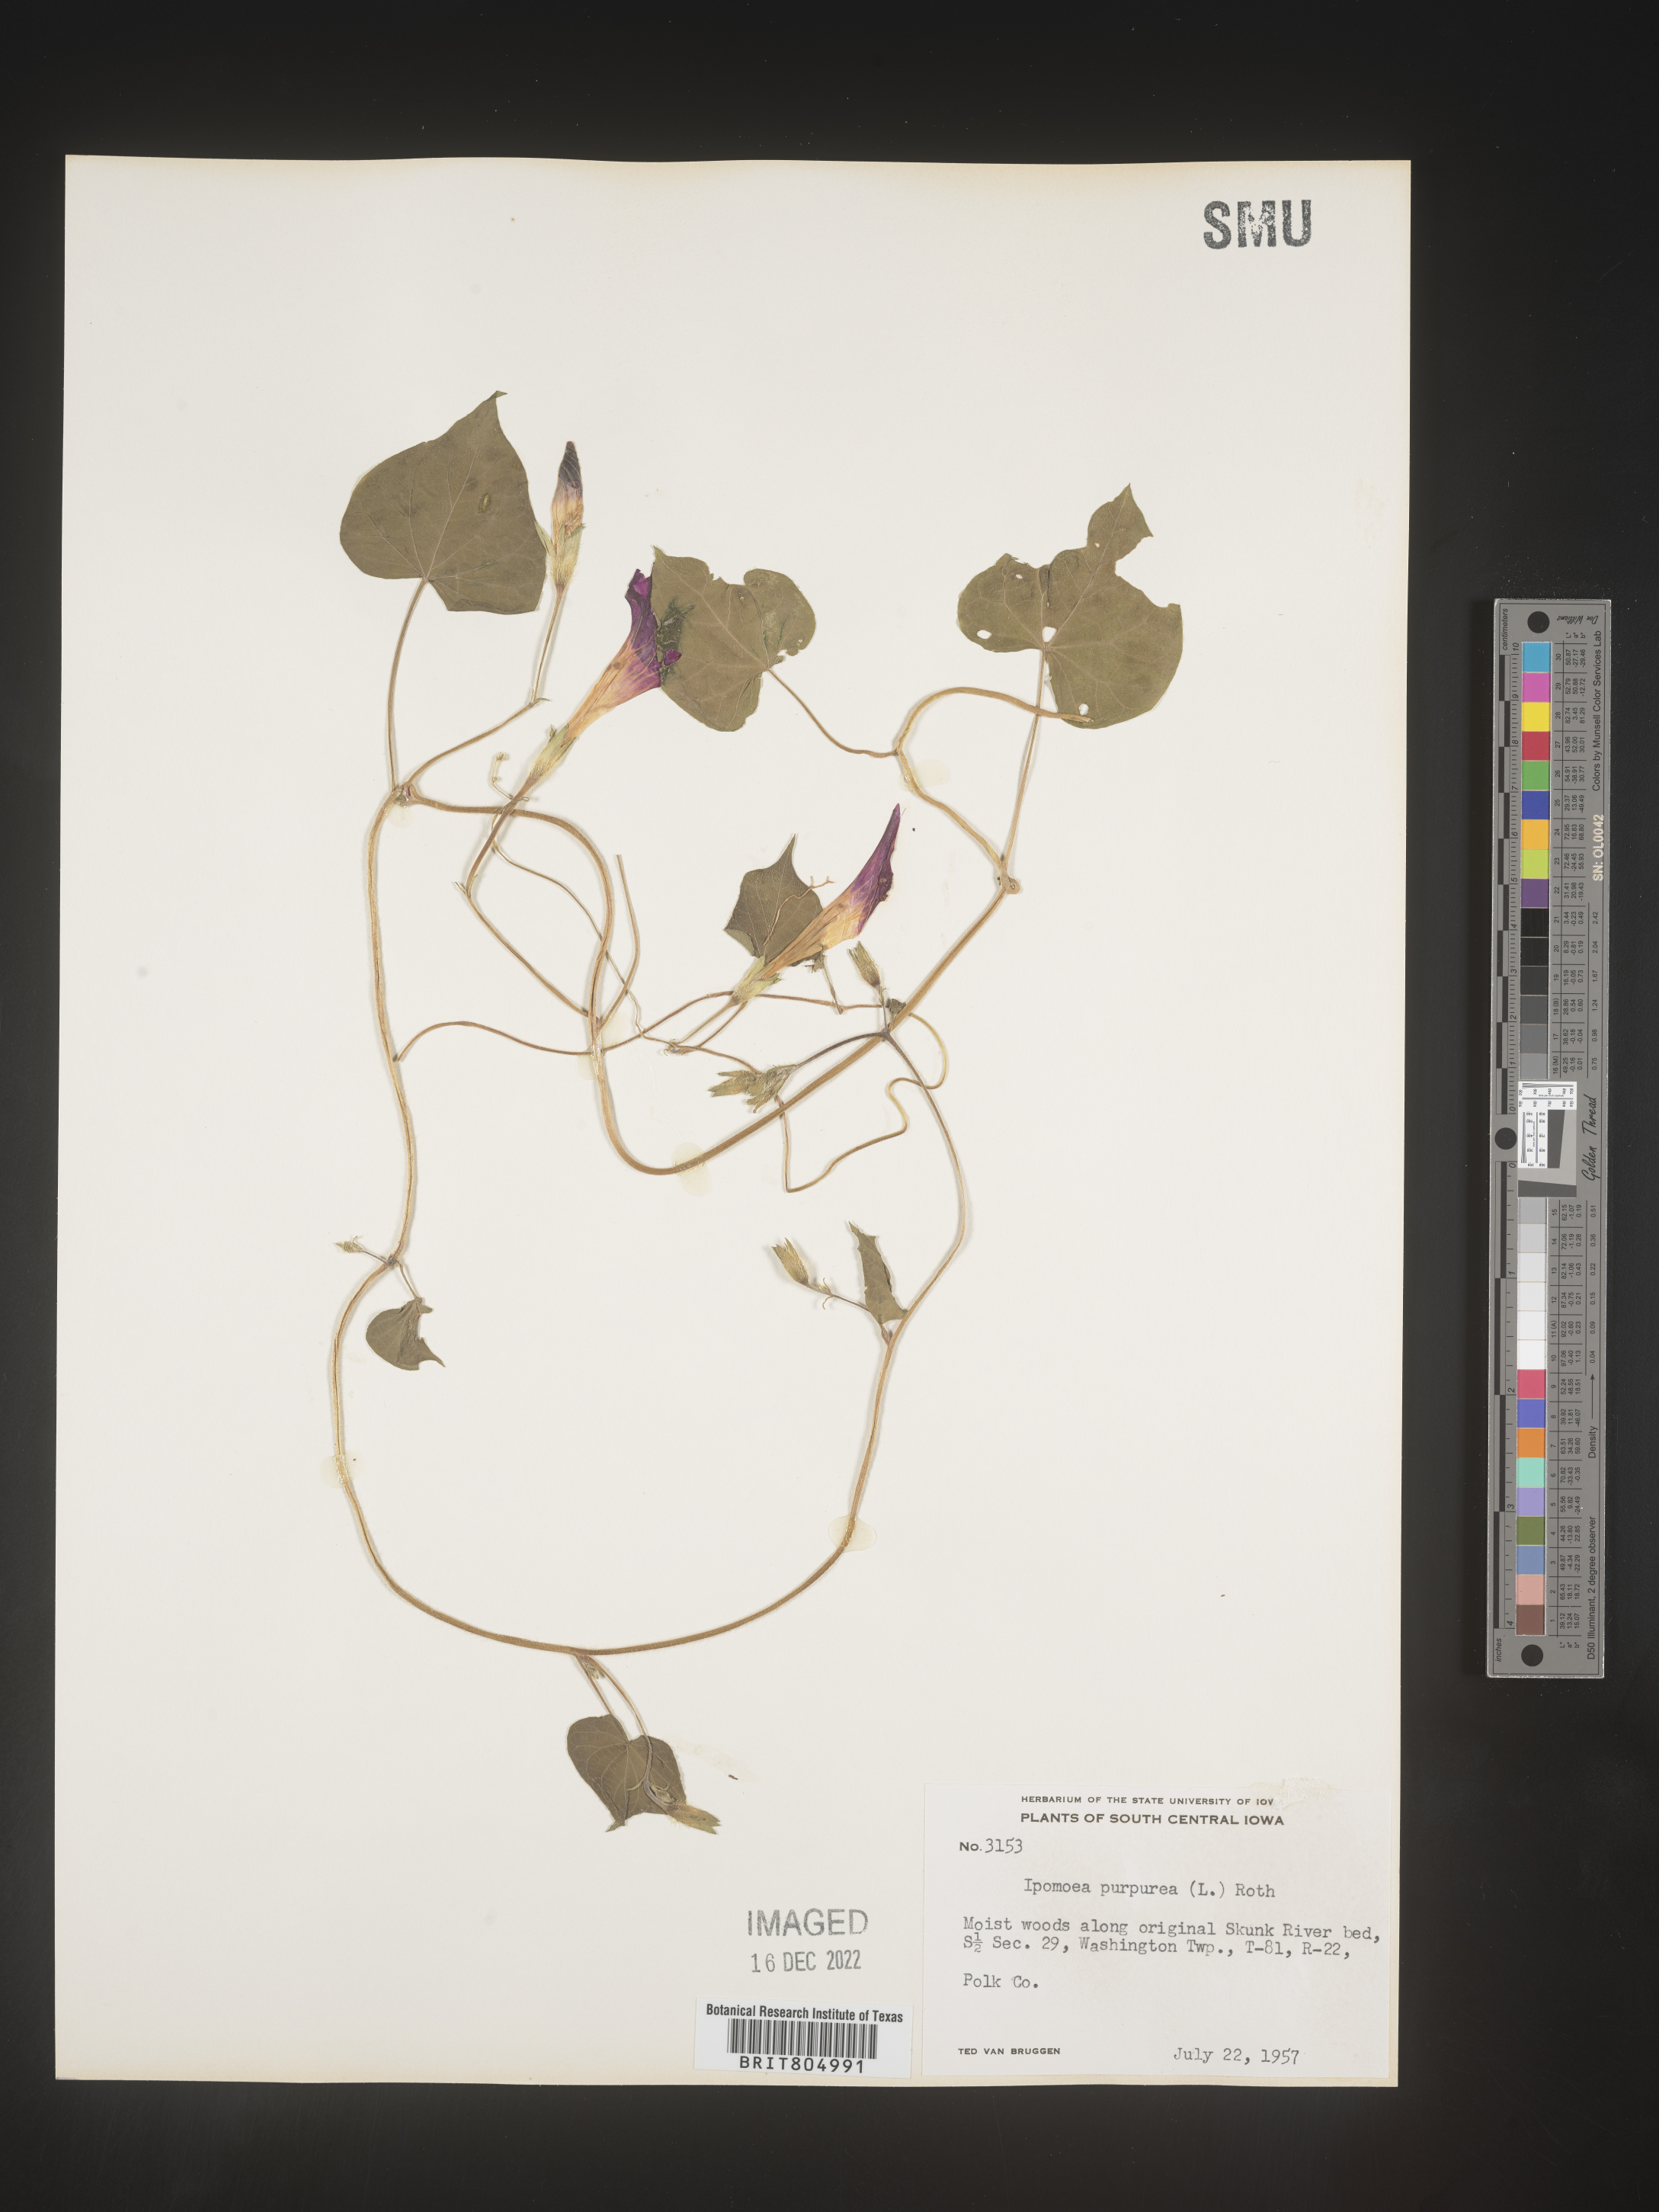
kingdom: Plantae
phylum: Tracheophyta
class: Magnoliopsida
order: Solanales
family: Convolvulaceae
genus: Ipomoea
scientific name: Ipomoea purpurea
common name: Common morning-glory
